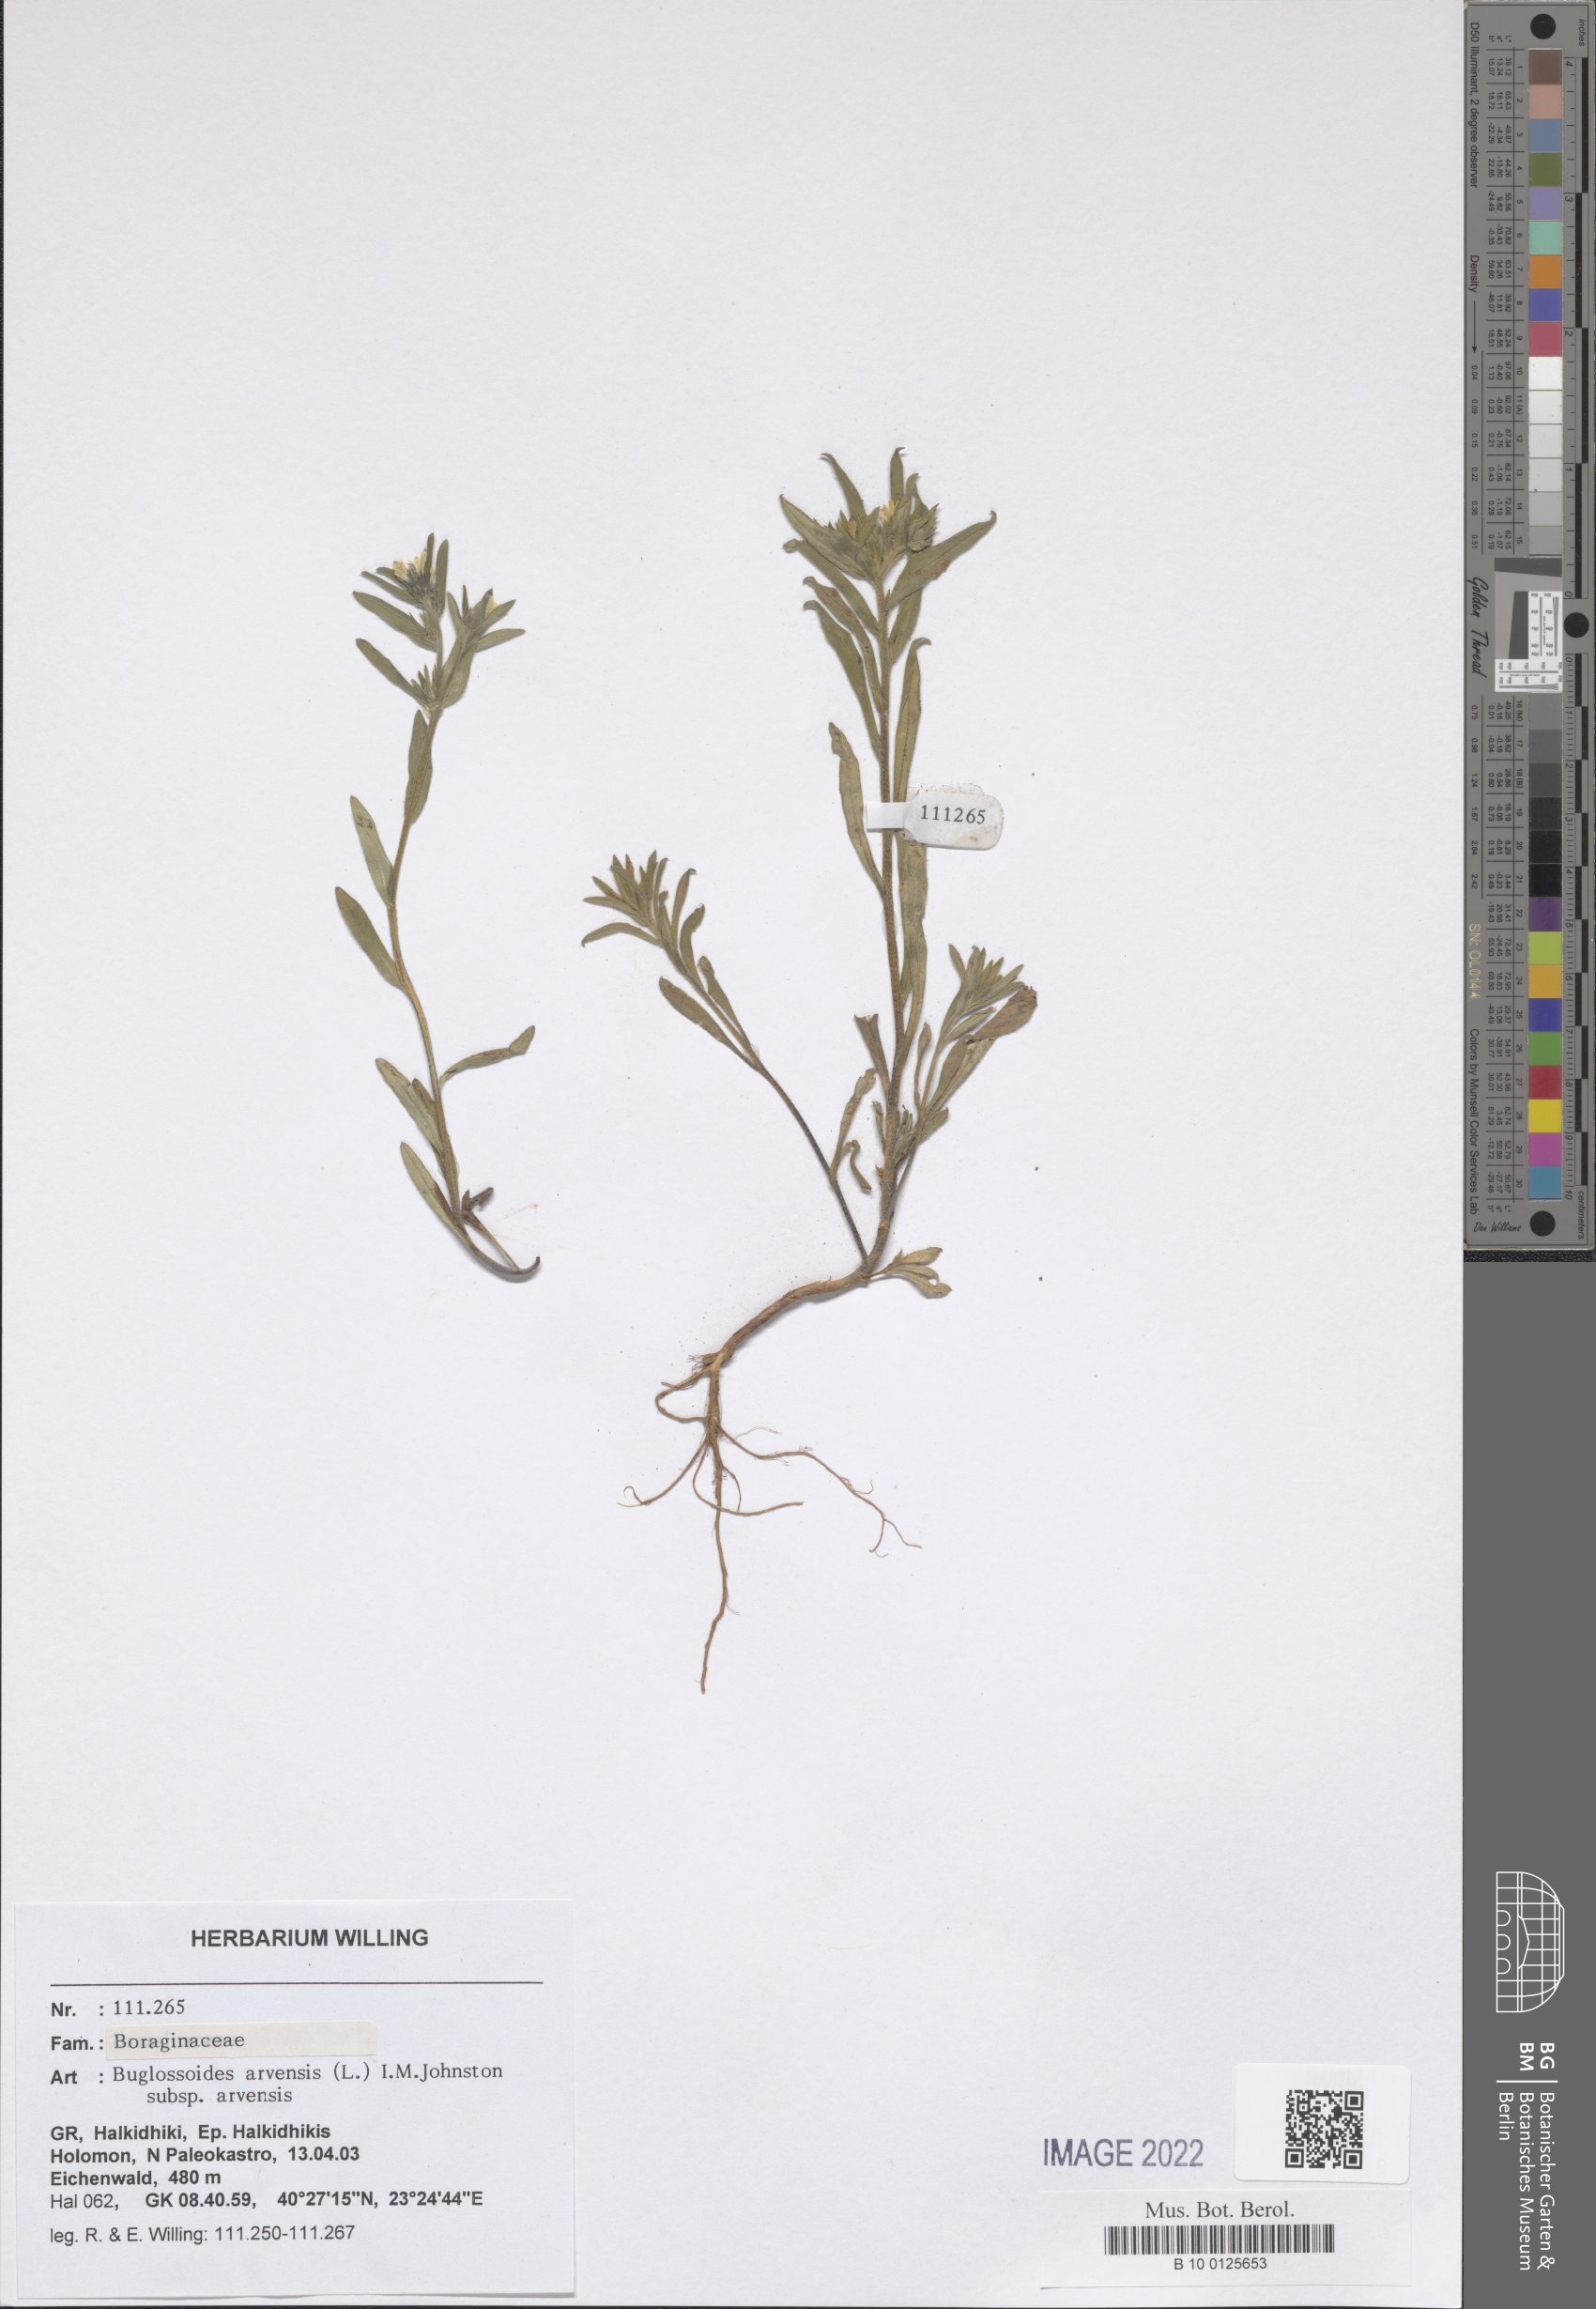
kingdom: Plantae
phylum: Tracheophyta
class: Magnoliopsida
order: Boraginales
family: Boraginaceae
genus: Buglossoides
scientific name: Buglossoides arvensis
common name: Corn gromwell
